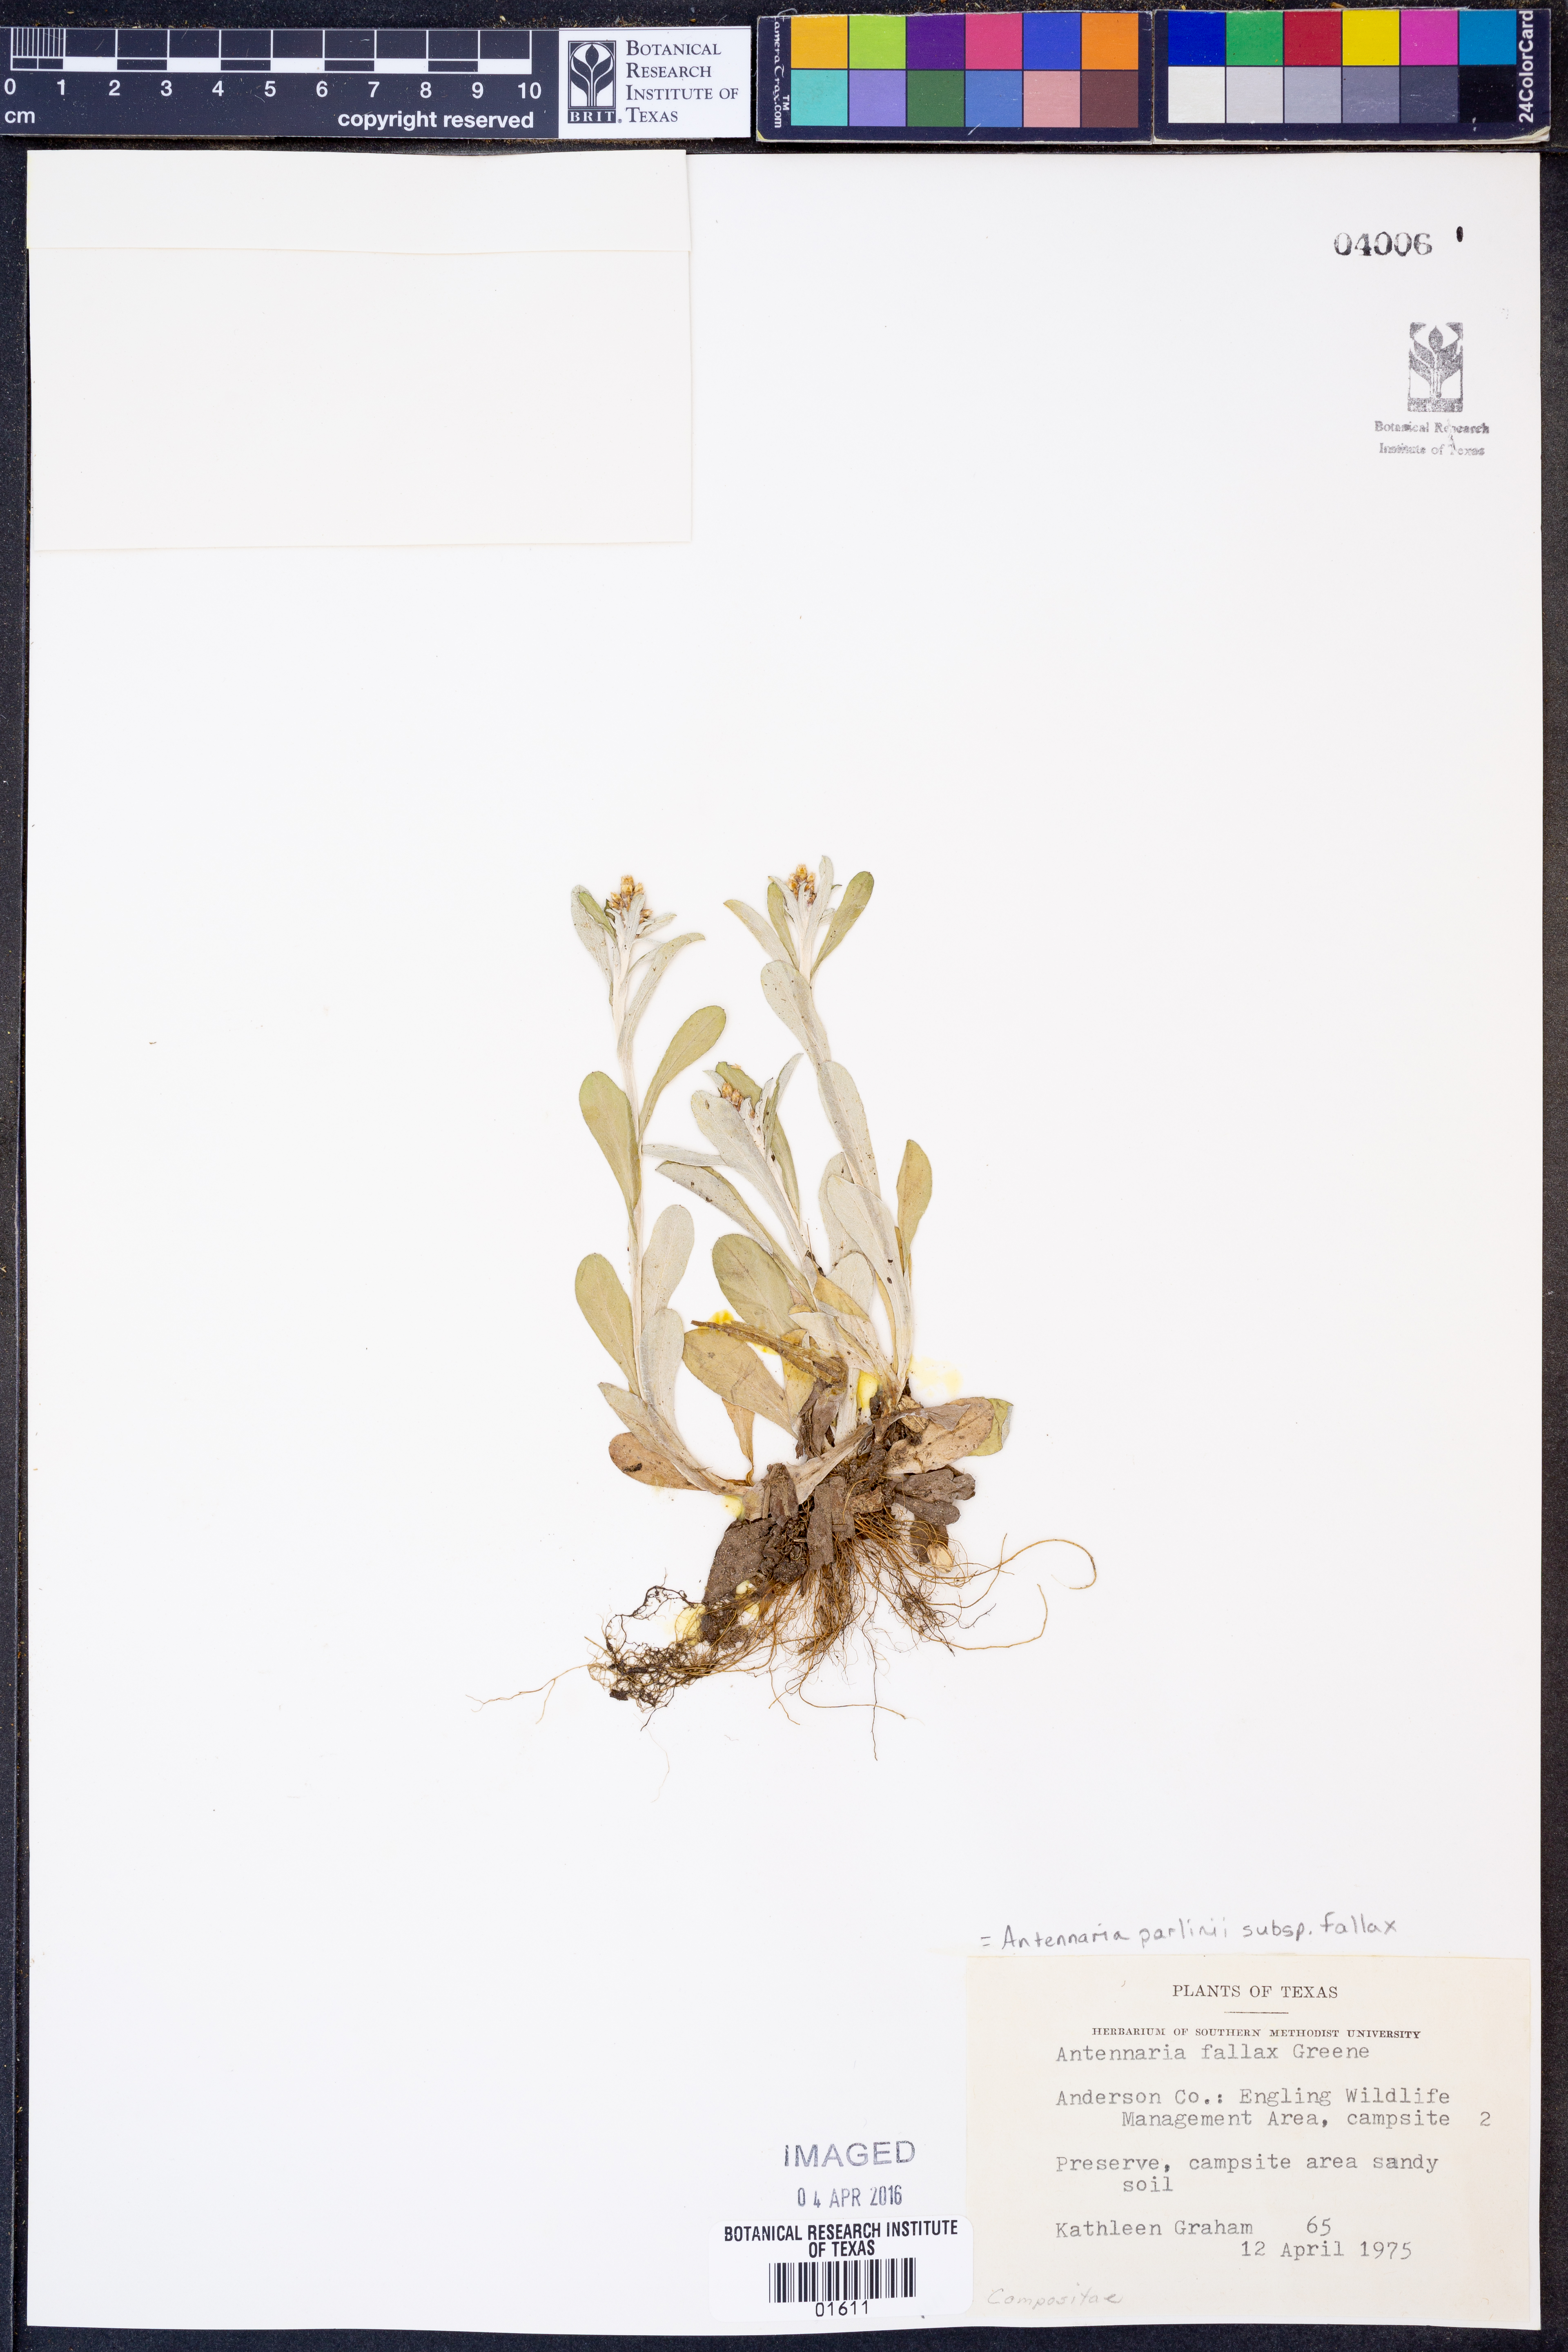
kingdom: Plantae
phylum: Tracheophyta
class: Magnoliopsida
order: Asterales
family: Asteraceae
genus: Antennaria
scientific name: Antennaria parlinii
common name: Parlin's pussytoes
